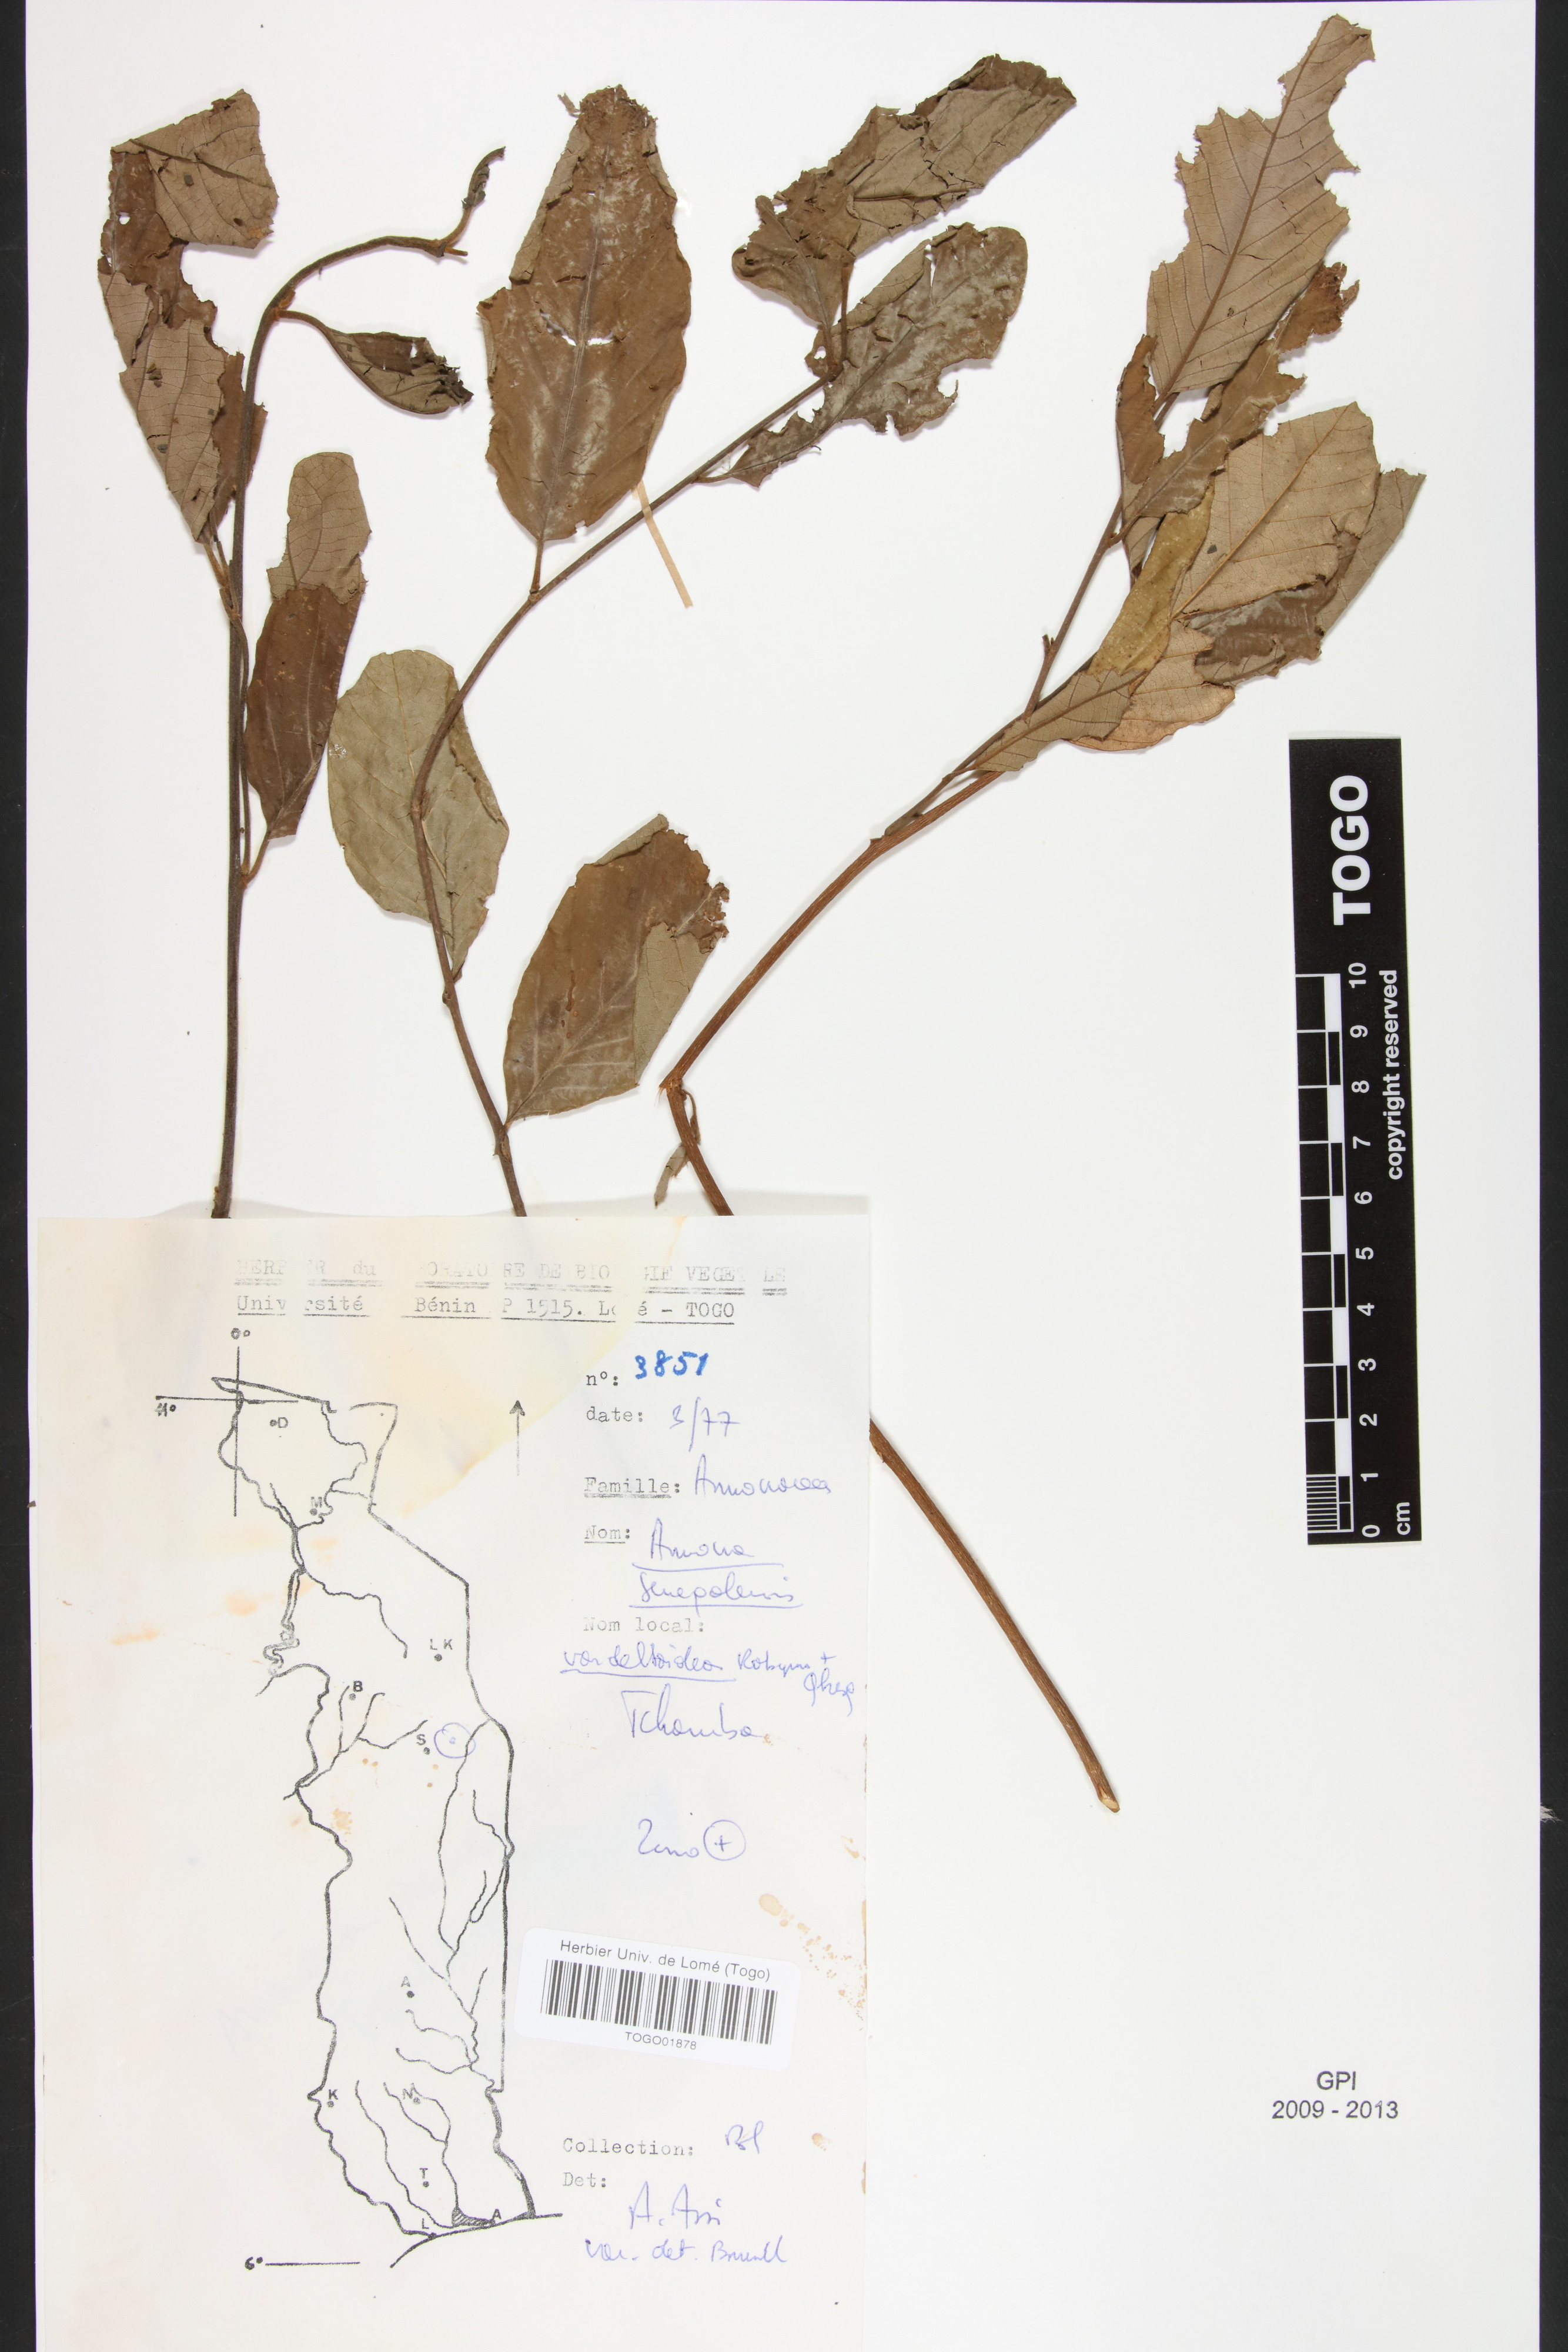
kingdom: Plantae
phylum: Tracheophyta
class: Magnoliopsida
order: Magnoliales
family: Annonaceae
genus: Annona
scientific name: Annona senegalensis
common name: Wild custard-apple
